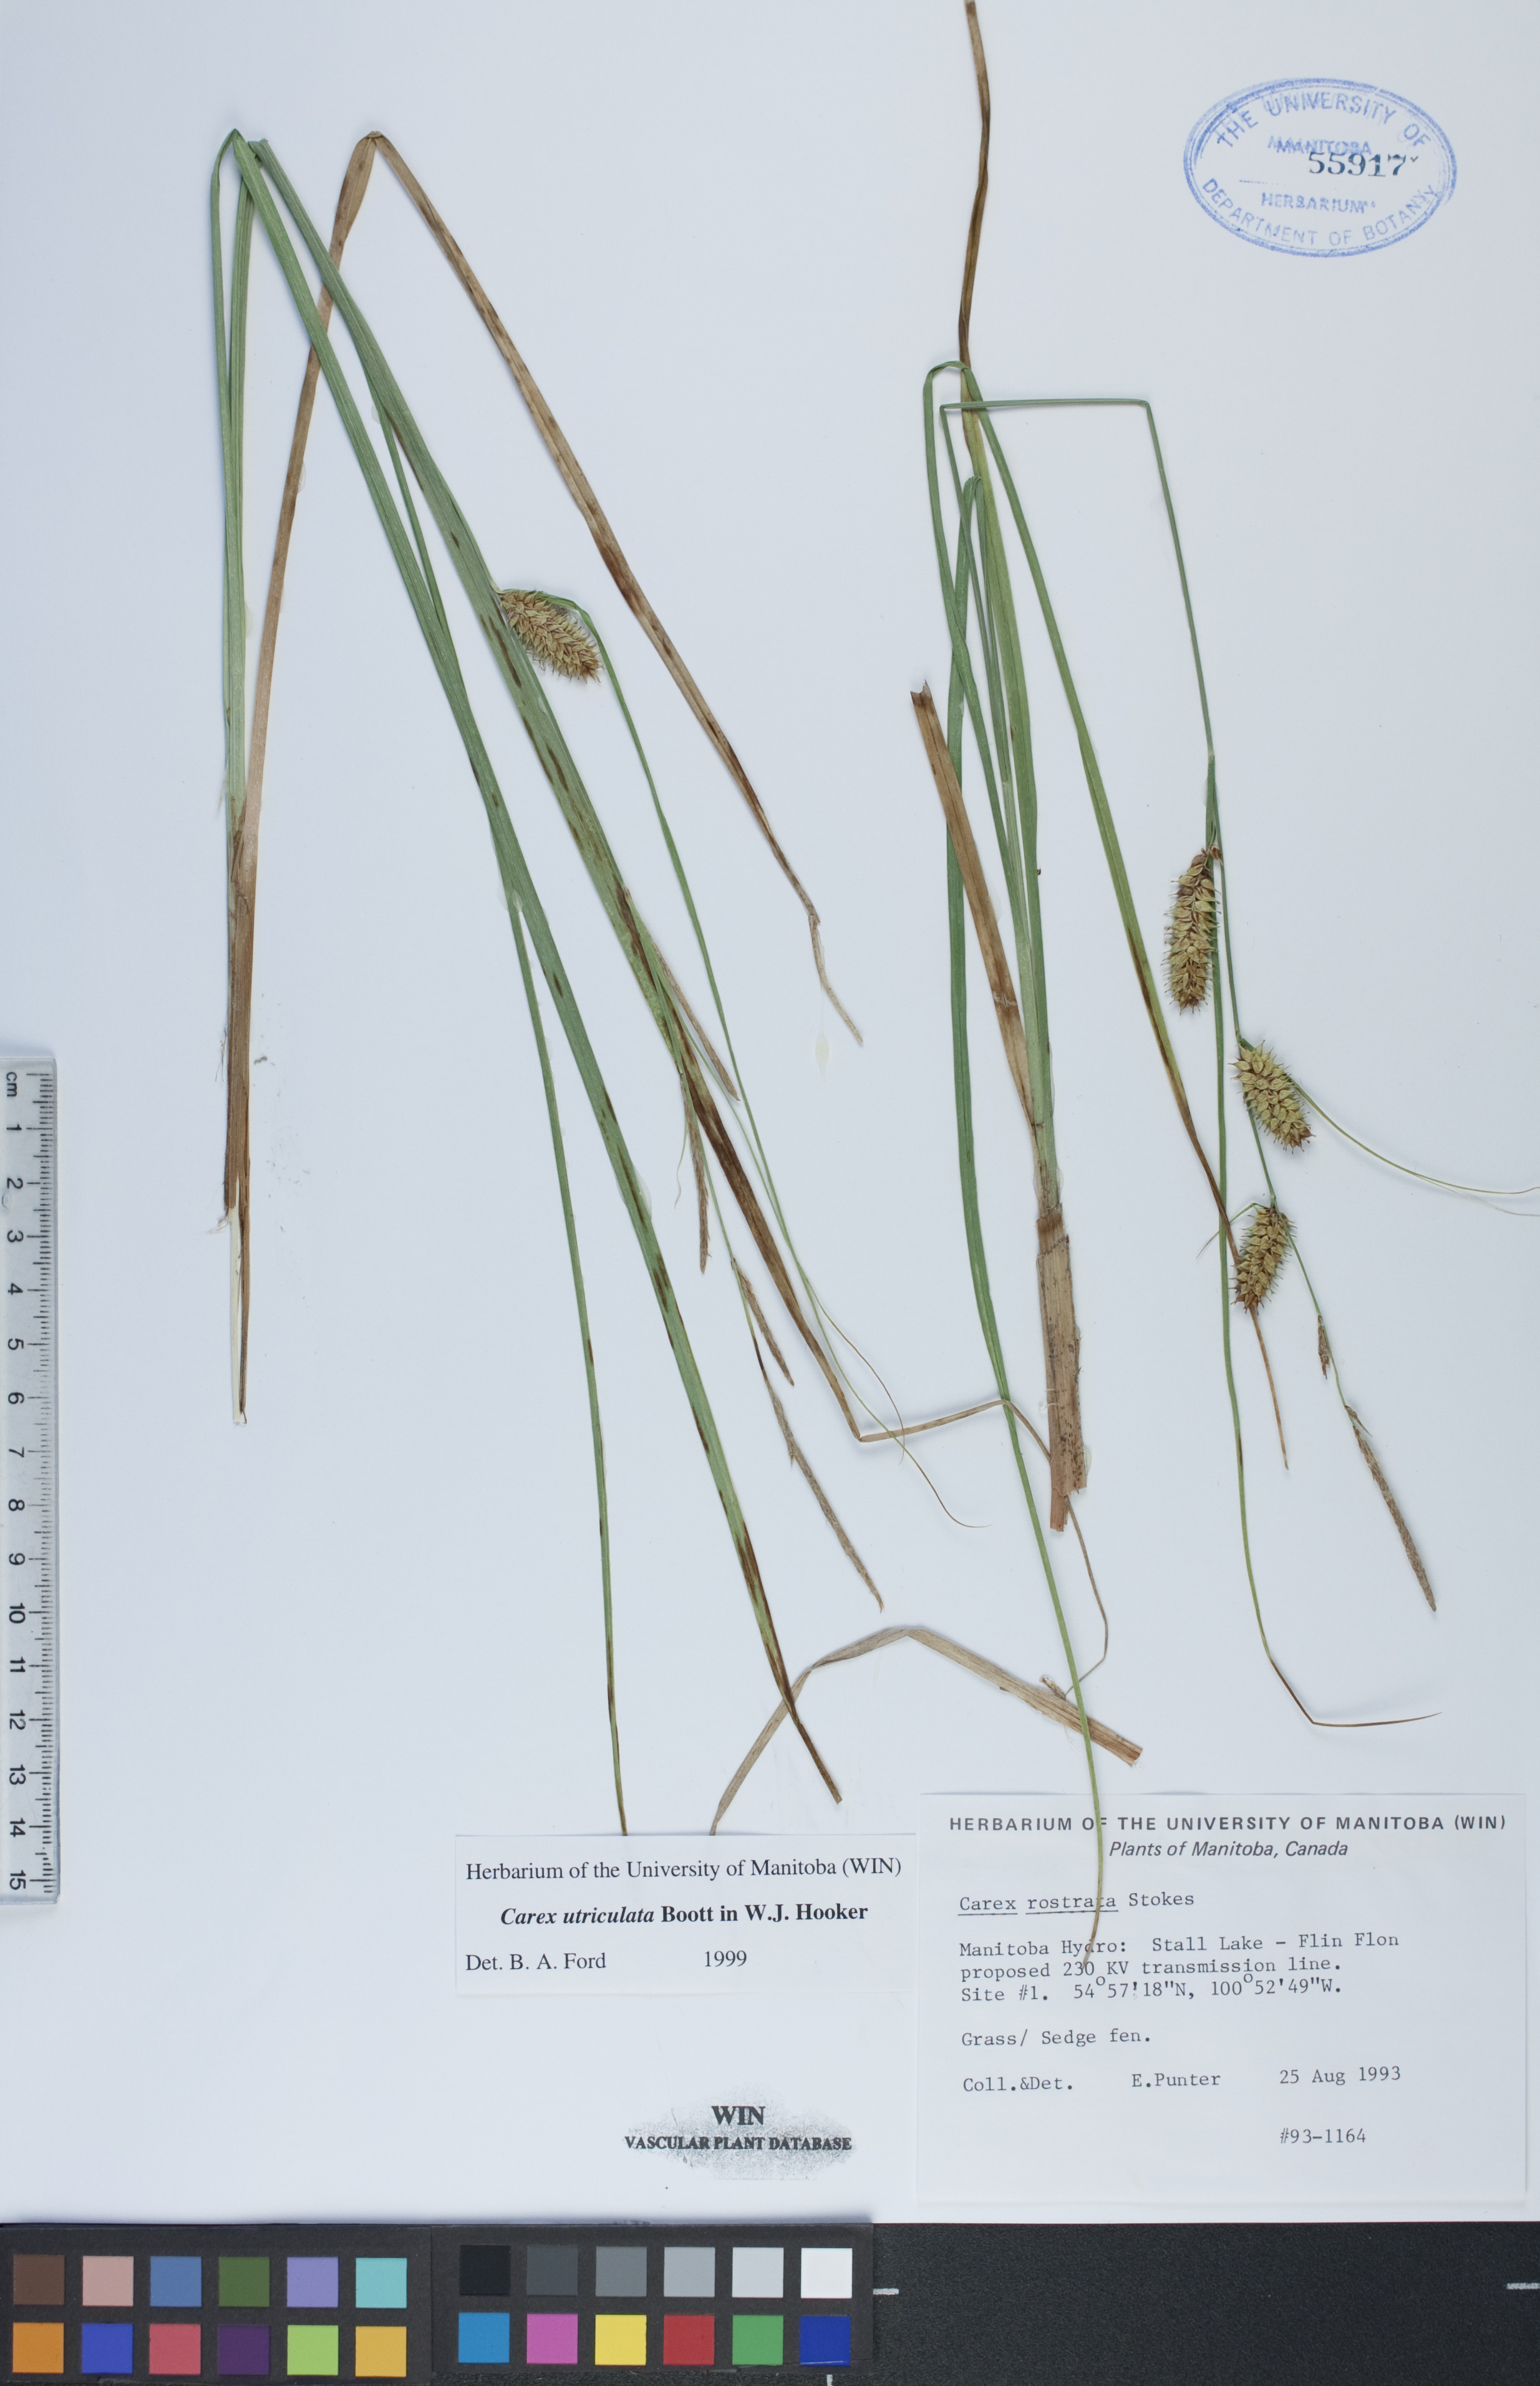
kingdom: Plantae
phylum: Tracheophyta
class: Liliopsida
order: Poales
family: Cyperaceae
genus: Carex
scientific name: Carex utriculata
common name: Beaked sedge
